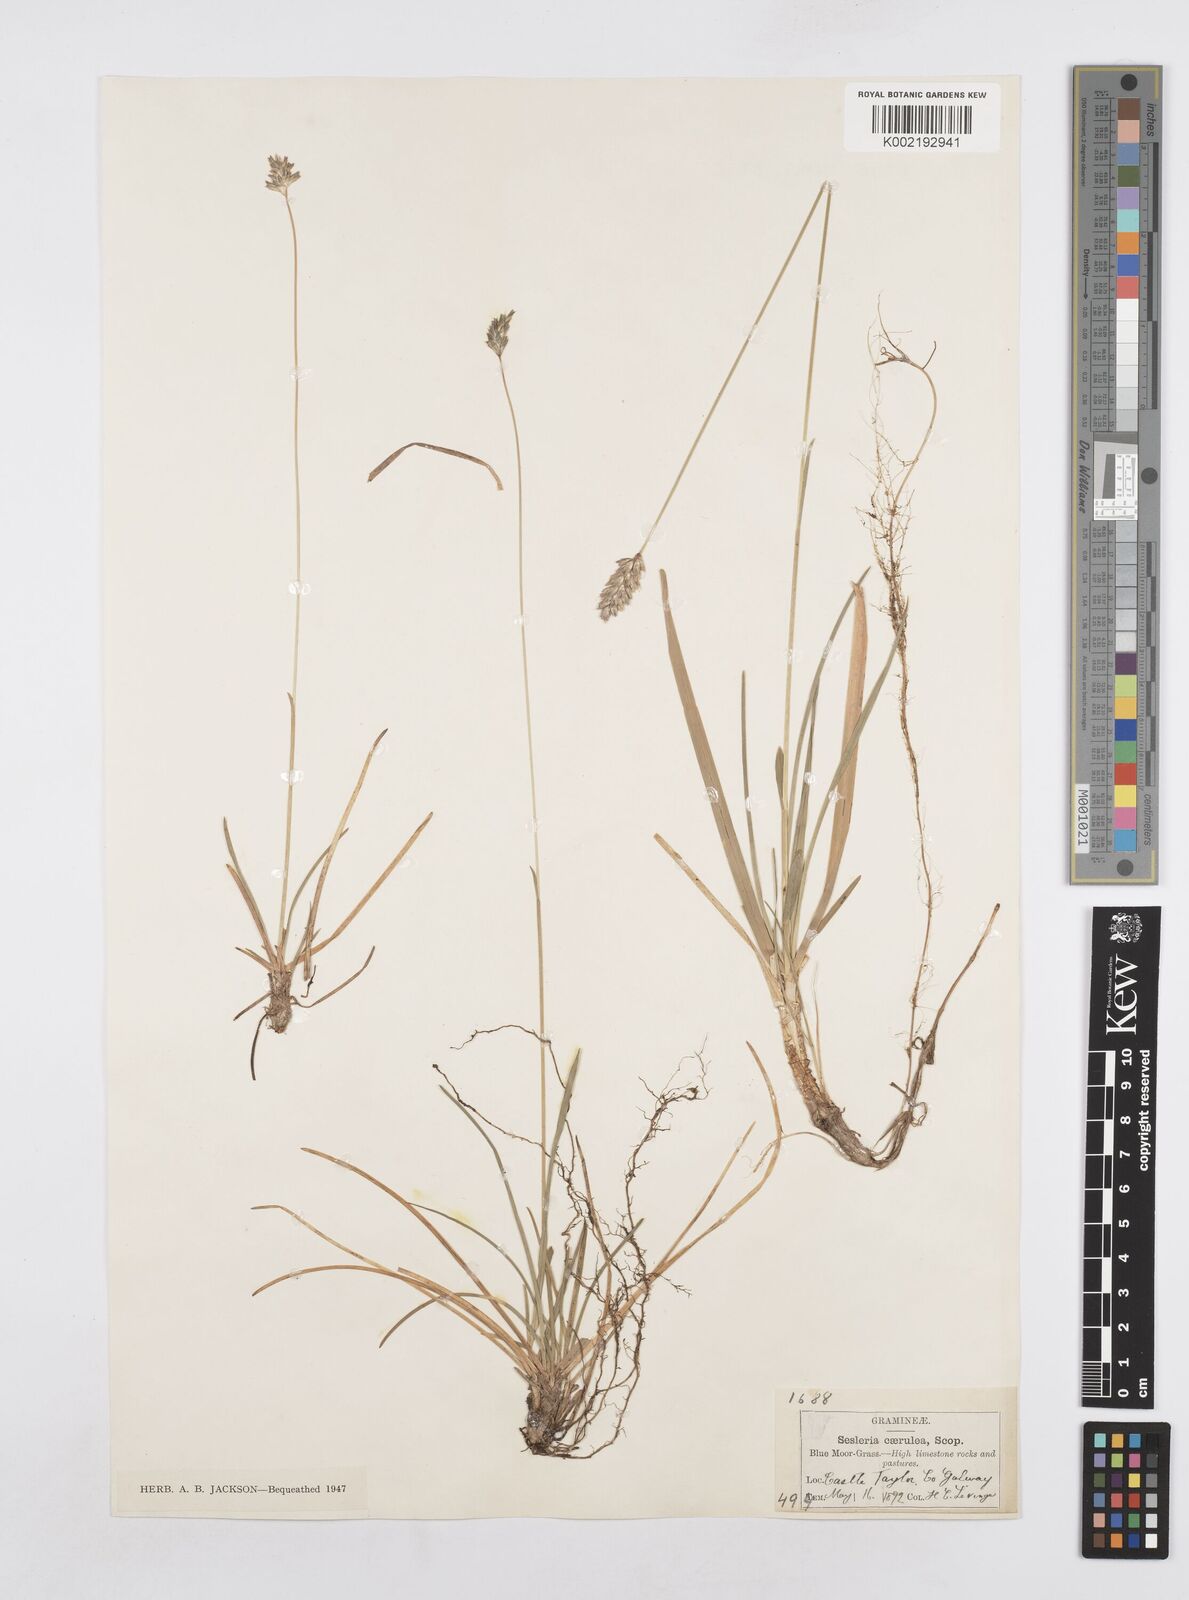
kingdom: Plantae
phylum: Tracheophyta
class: Liliopsida
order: Poales
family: Poaceae
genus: Sesleria
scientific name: Sesleria caerulea
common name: Blue moor-grass
